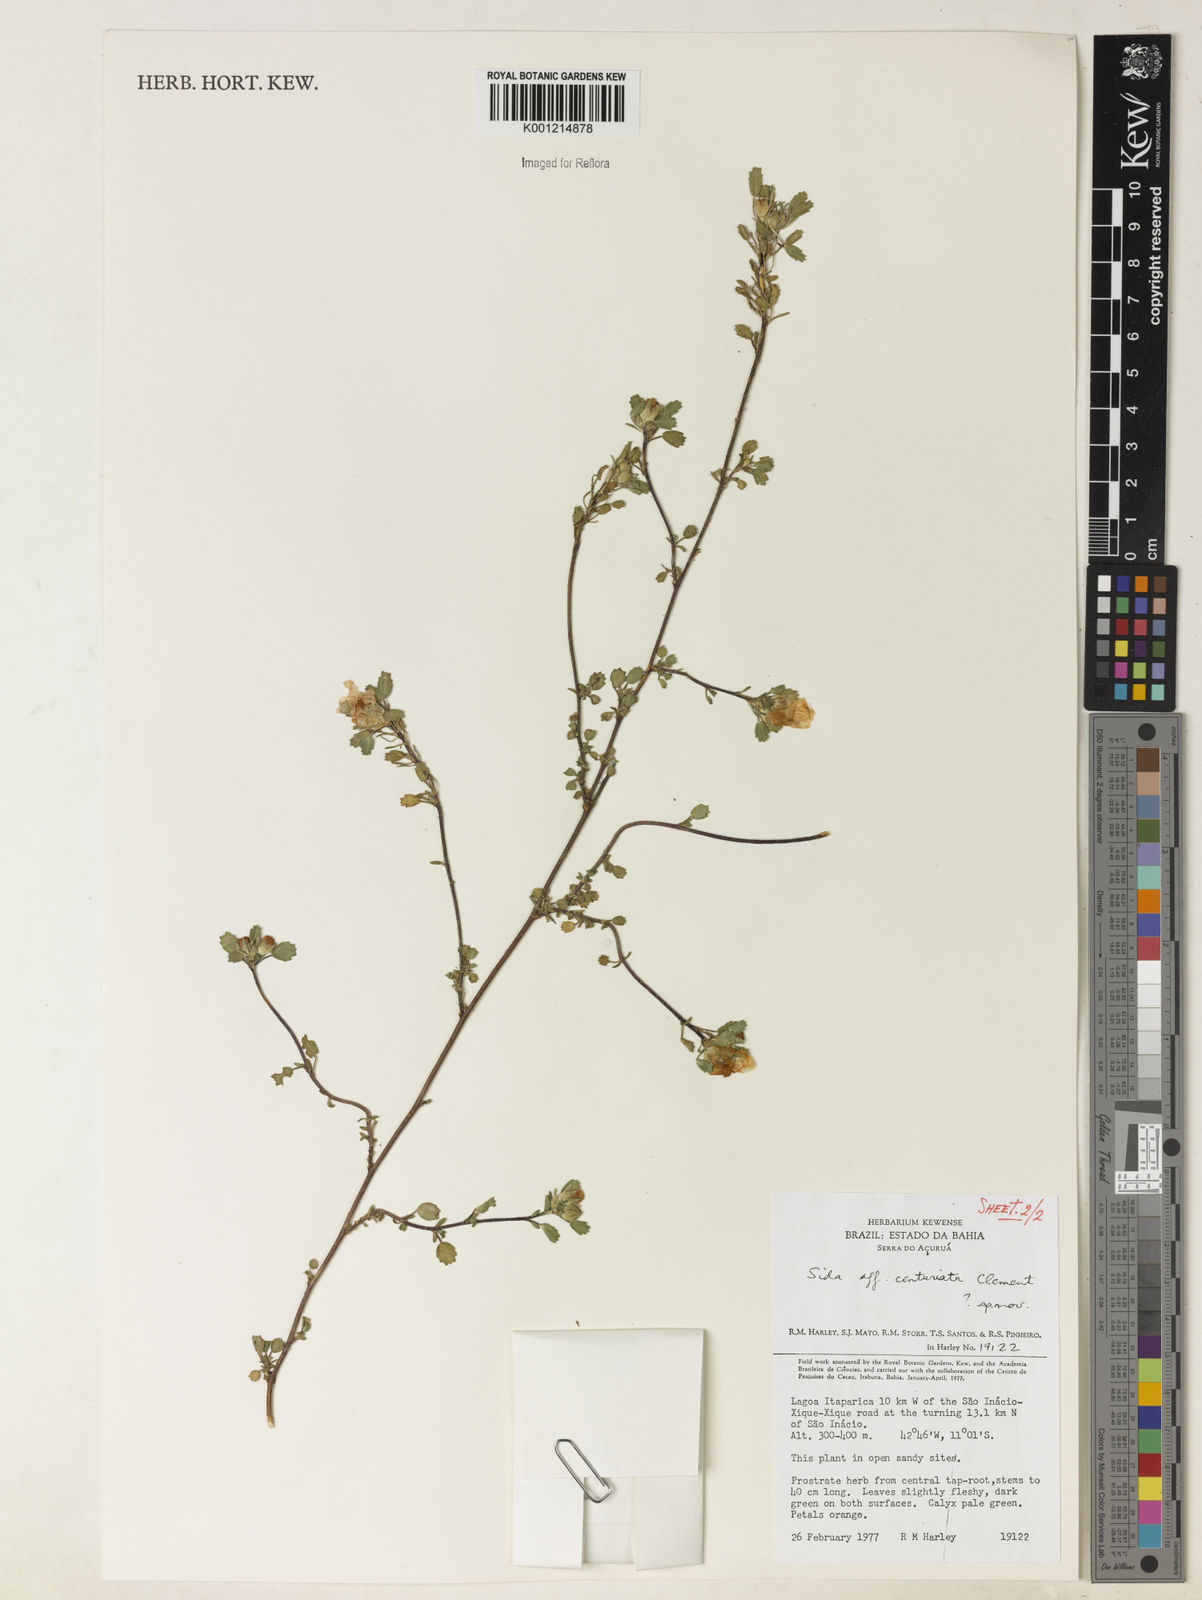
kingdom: Plantae
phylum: Tracheophyta
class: Magnoliopsida
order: Malvales
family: Malvaceae
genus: Sida
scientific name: Sida centuriata
